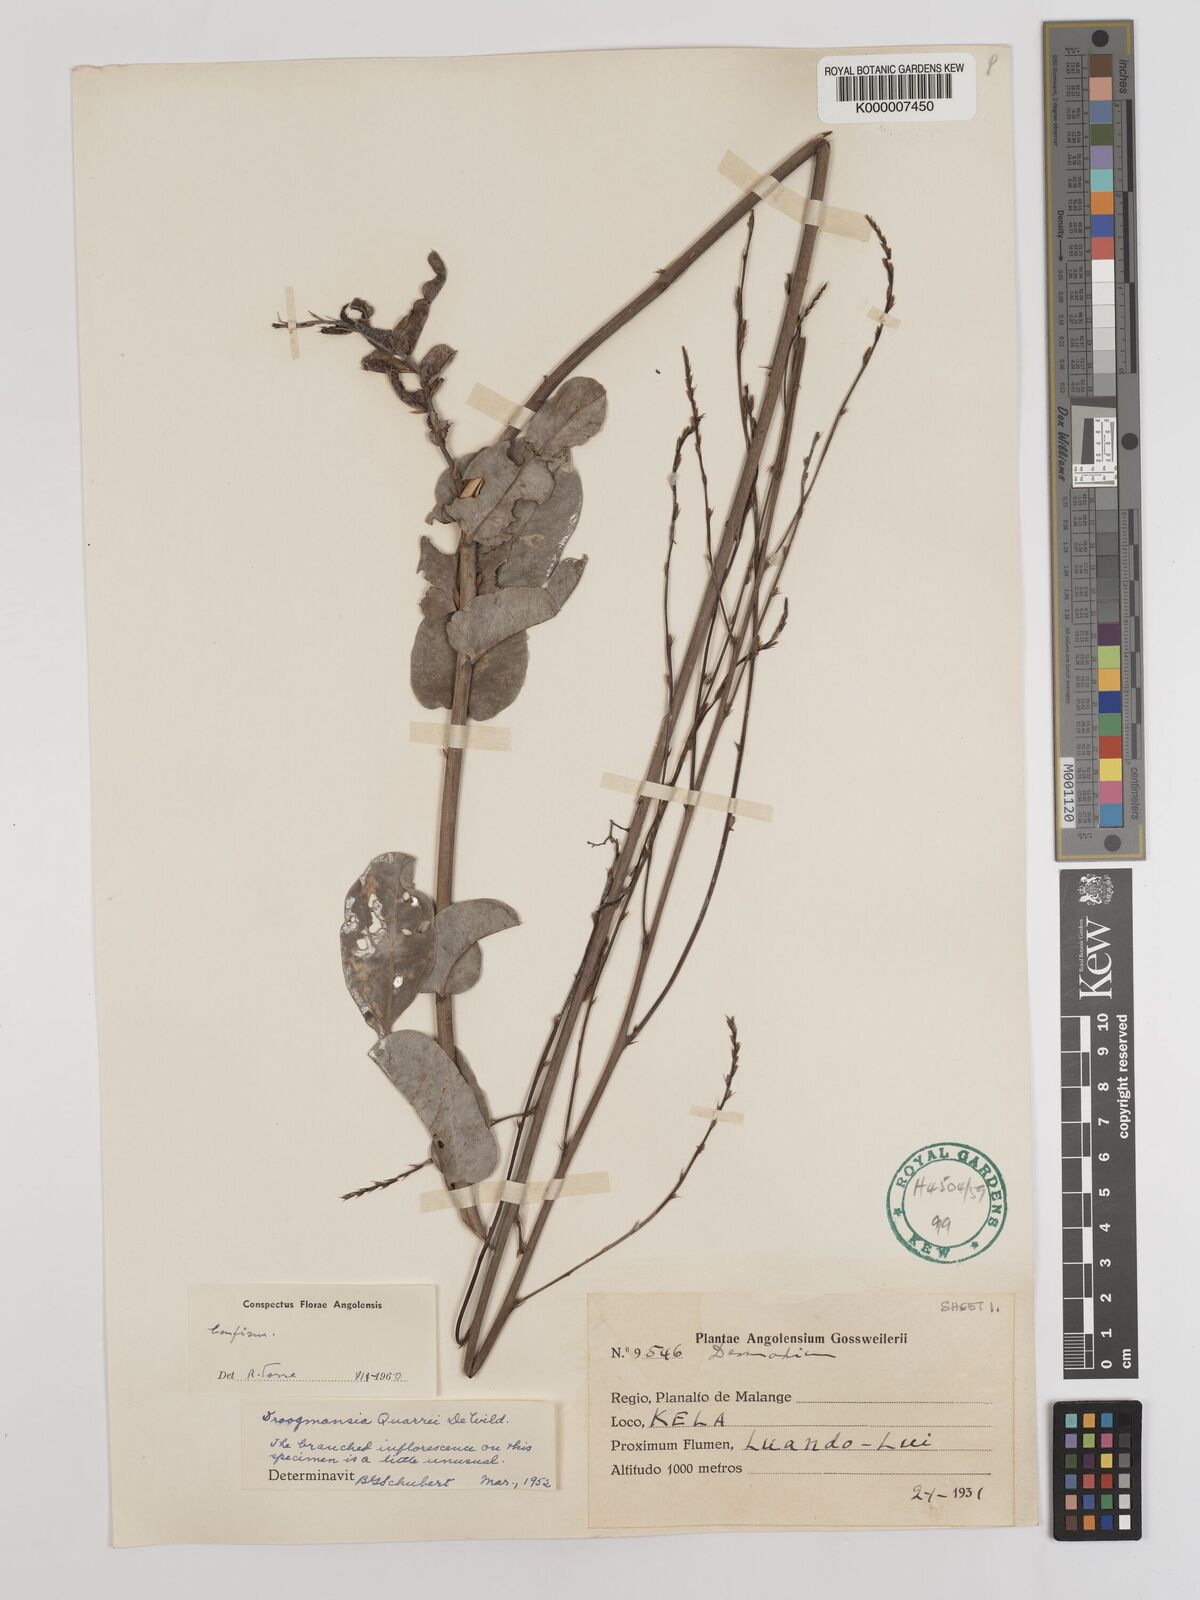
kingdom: Plantae
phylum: Tracheophyta
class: Magnoliopsida
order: Fabales
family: Fabaceae
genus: Droogmansia
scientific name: Droogmansia pteropus
